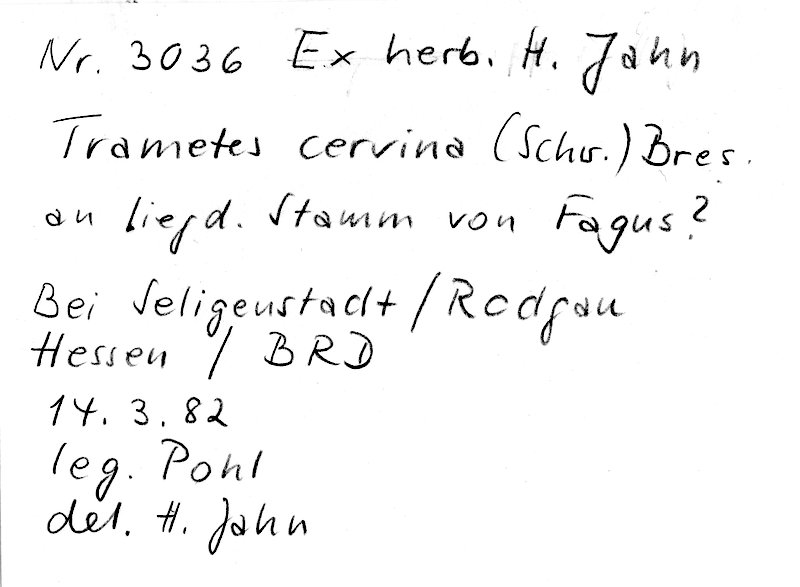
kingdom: Fungi
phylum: Basidiomycota
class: Agaricomycetes
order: Polyporales
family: Irpicaceae
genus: Trametopsis
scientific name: Trametopsis cervina
